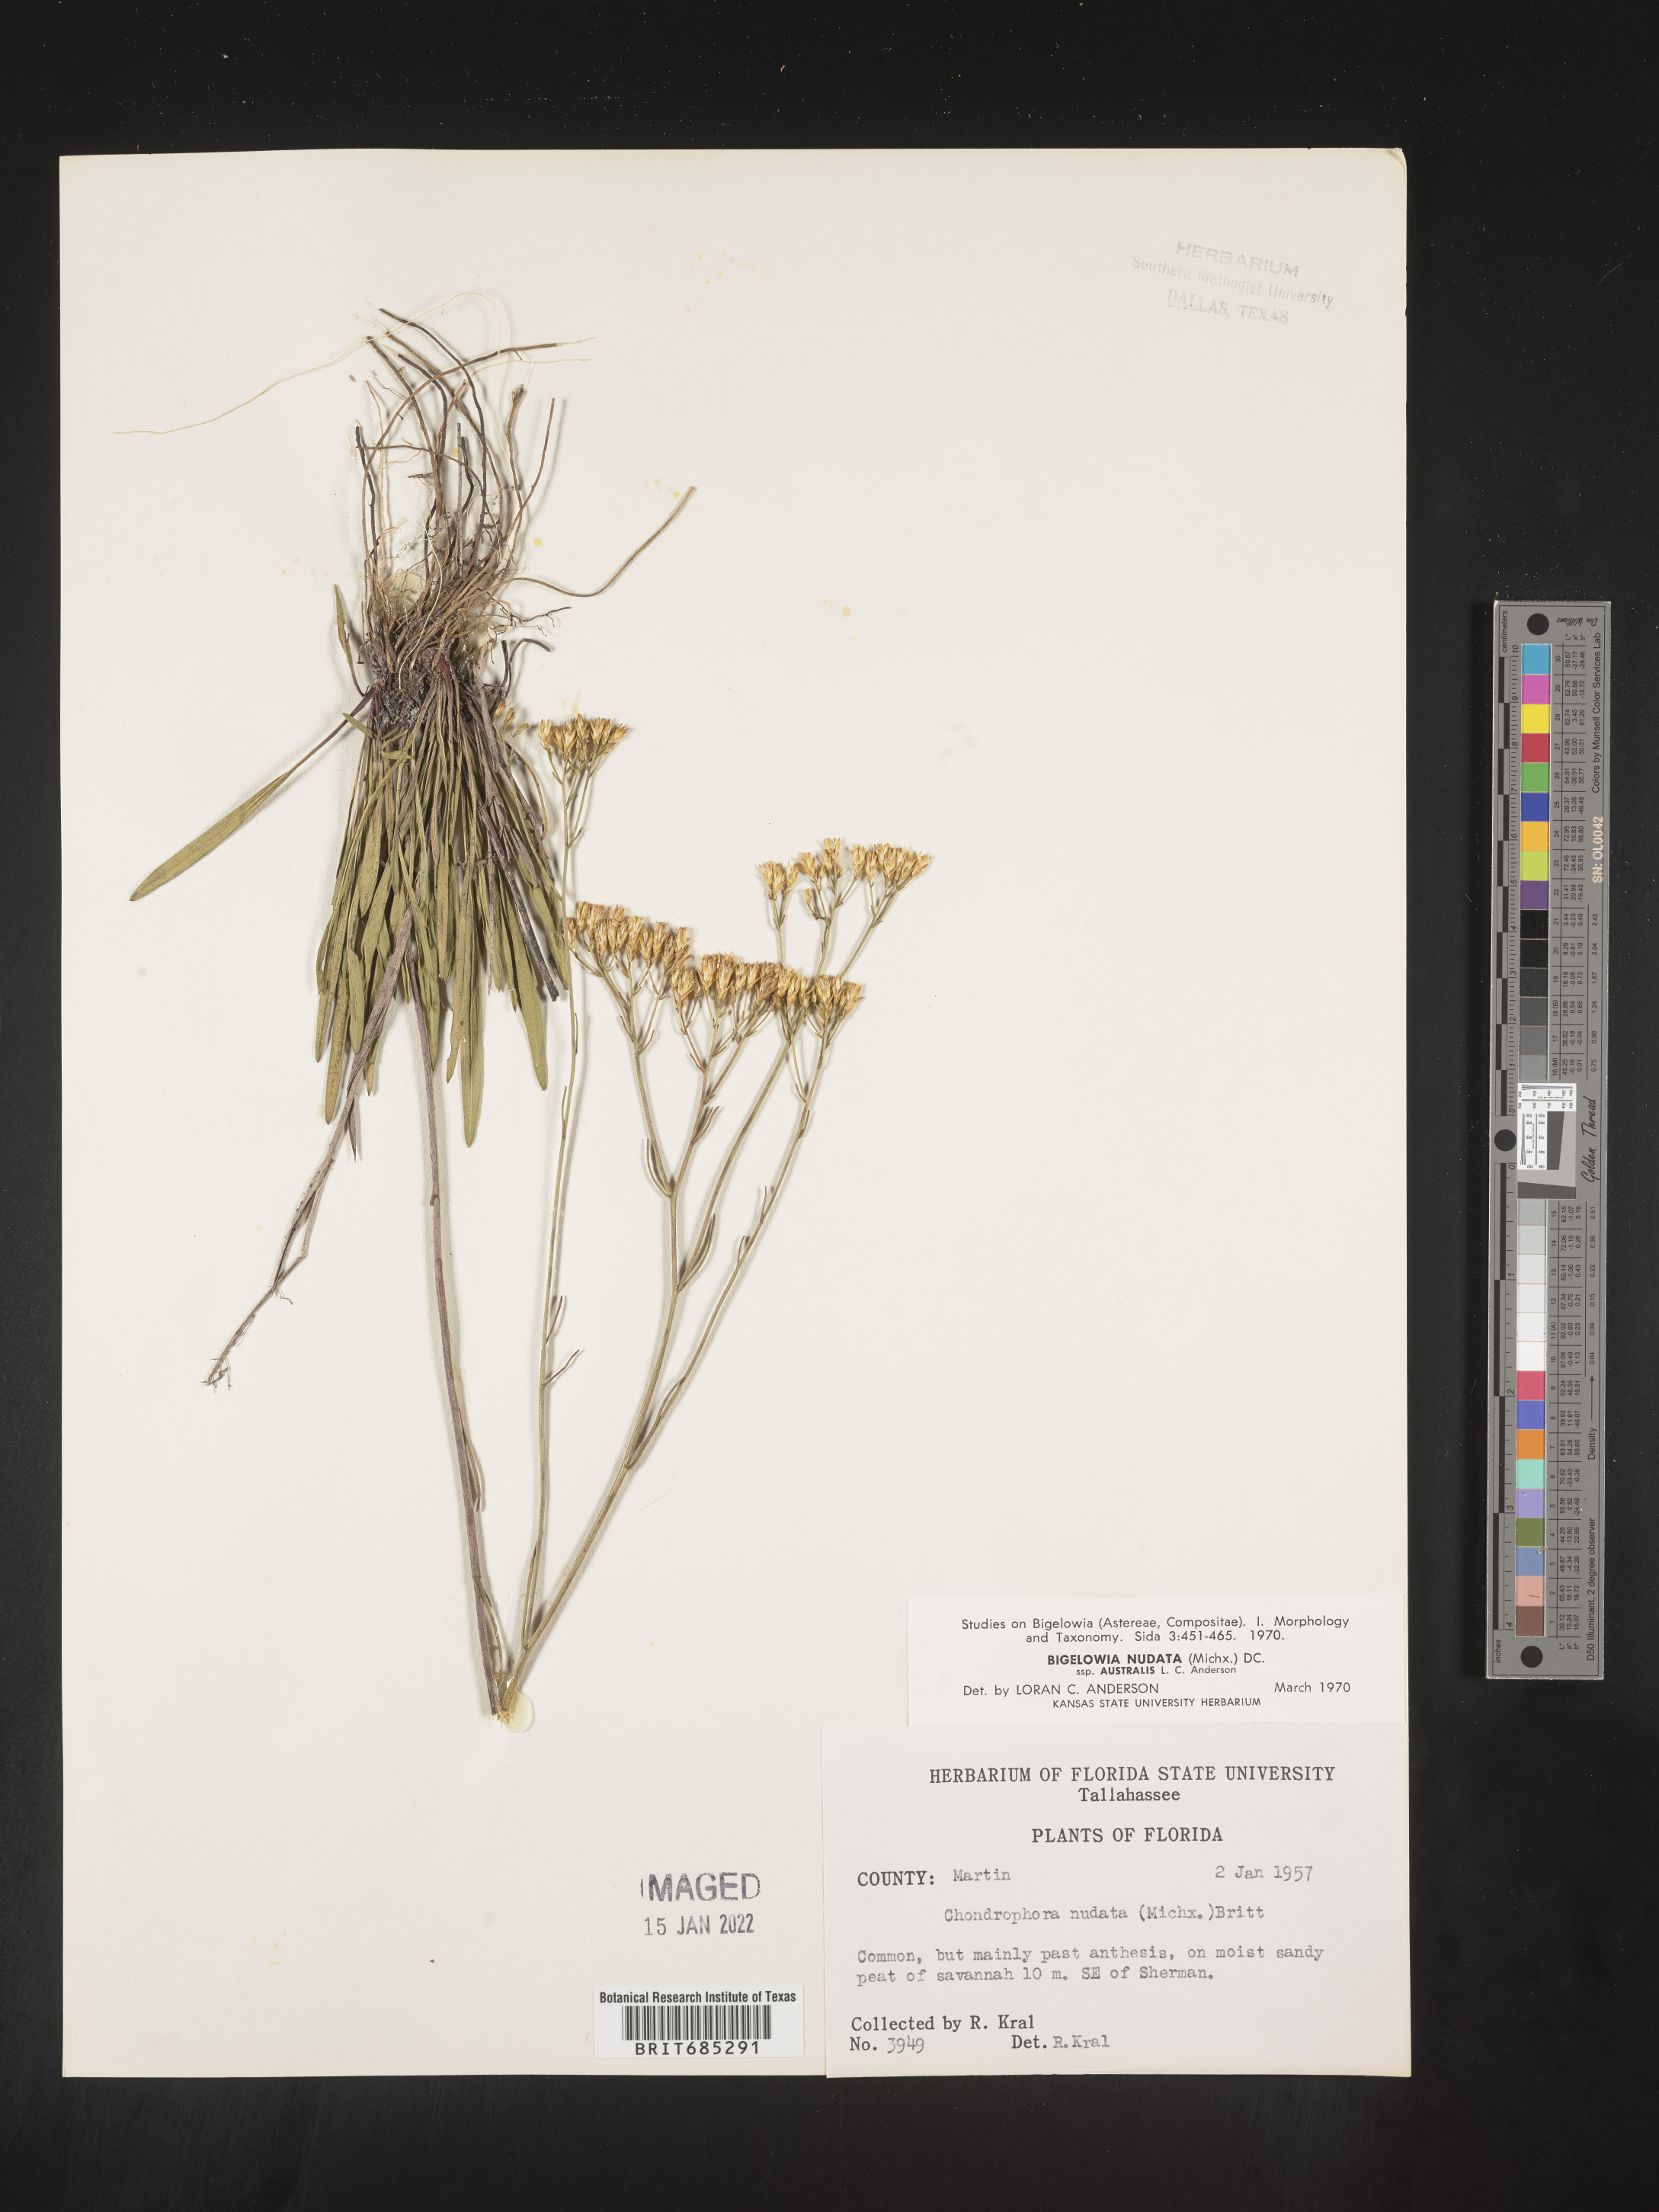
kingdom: Plantae
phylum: Tracheophyta
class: Magnoliopsida
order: Asterales
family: Asteraceae
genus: Bigelowia
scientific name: Bigelowia nudata
